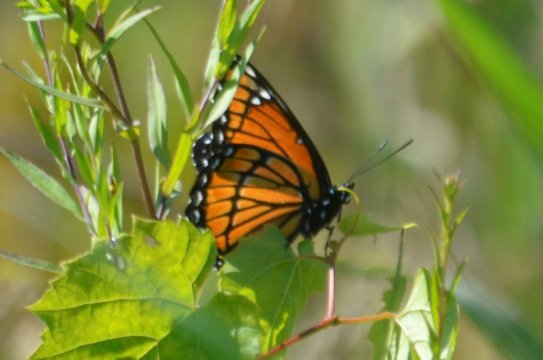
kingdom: Animalia
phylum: Arthropoda
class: Insecta
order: Lepidoptera
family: Nymphalidae
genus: Limenitis
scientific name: Limenitis archippus
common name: Viceroy
